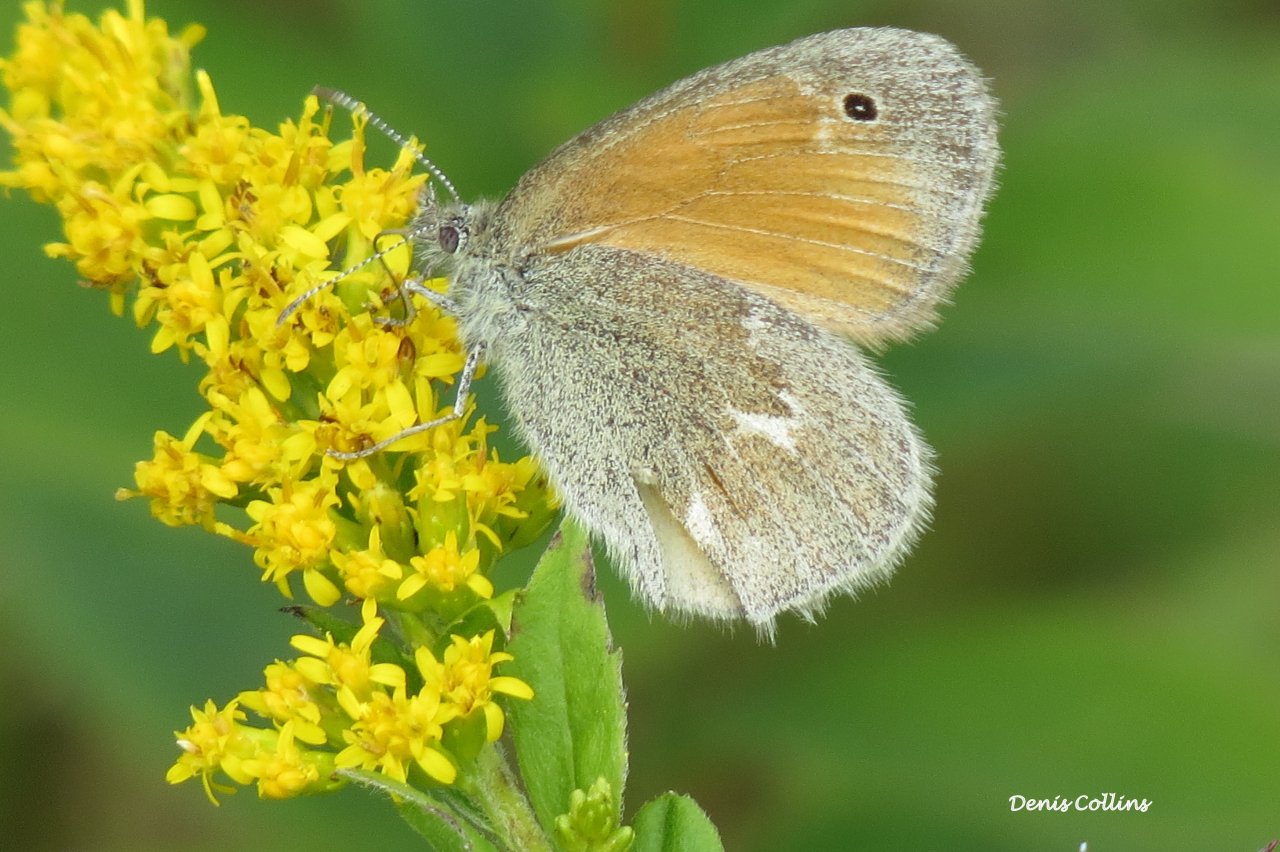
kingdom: Animalia
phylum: Arthropoda
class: Insecta
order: Lepidoptera
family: Nymphalidae
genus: Coenonympha
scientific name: Coenonympha tullia
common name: Large Heath
